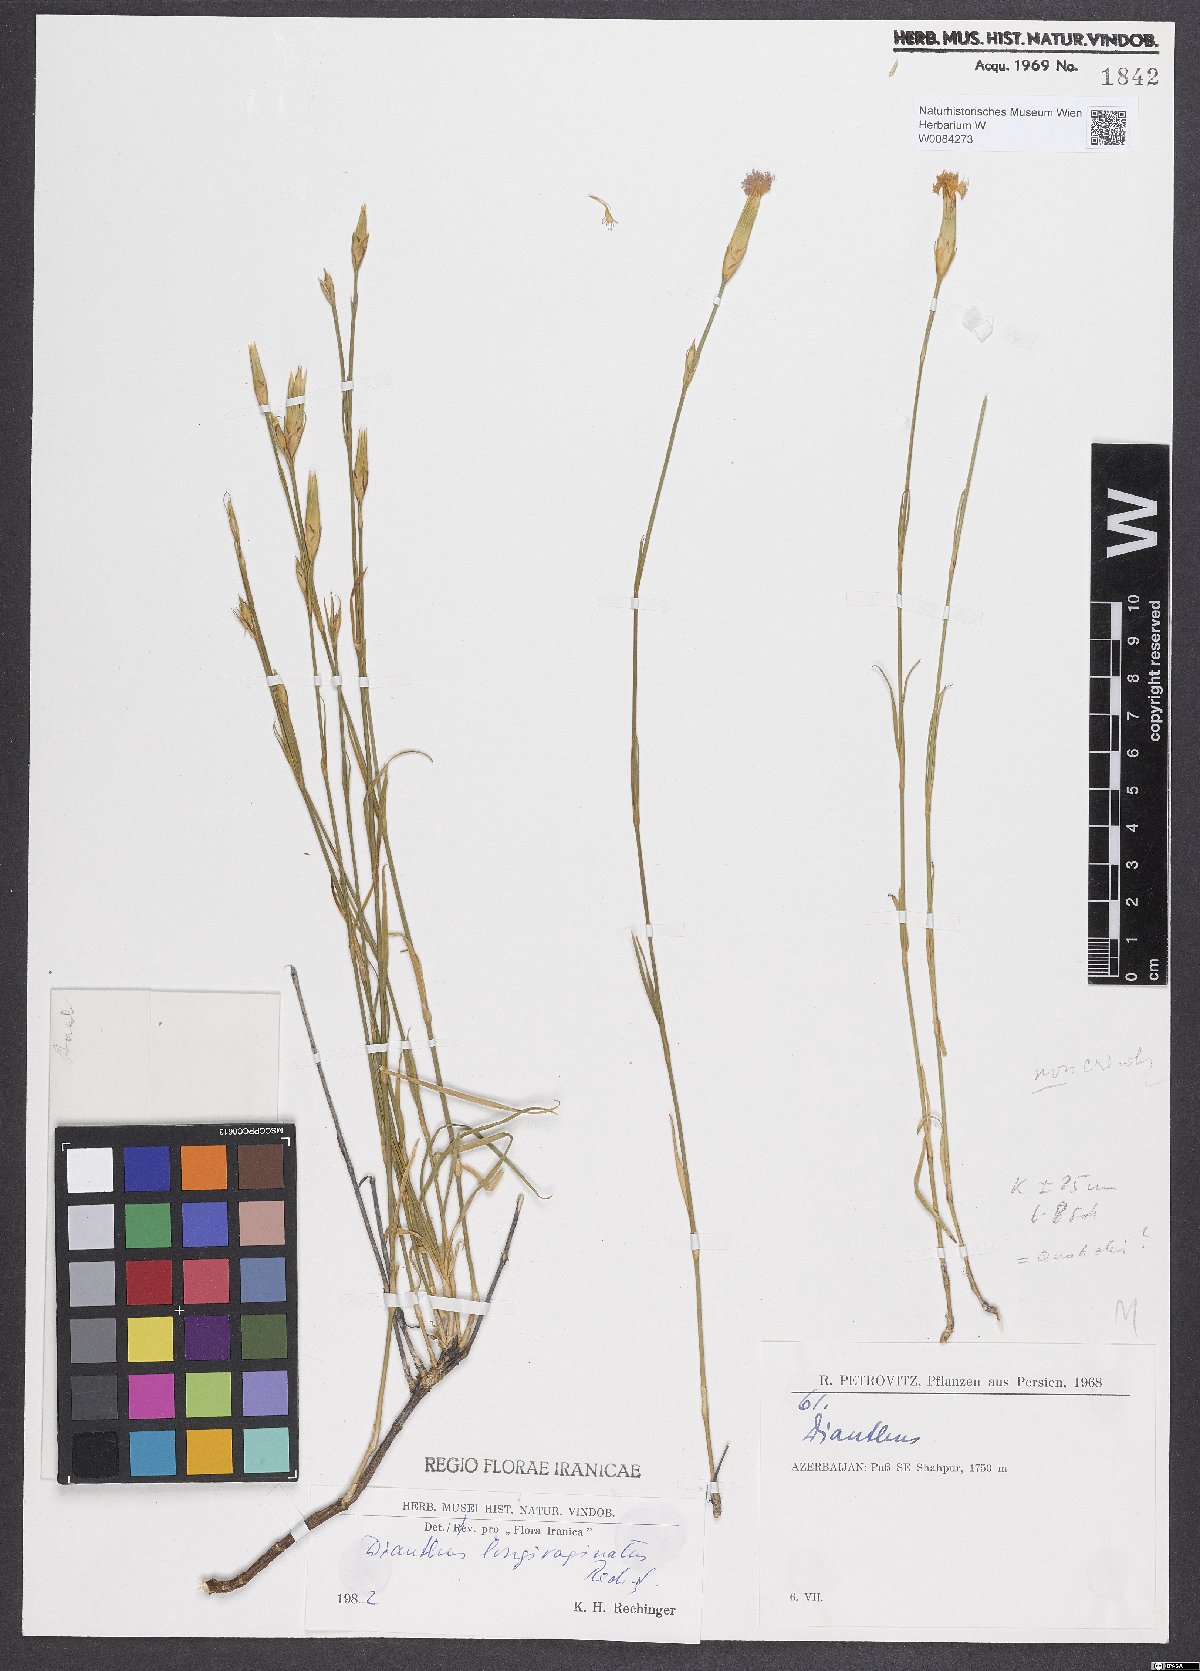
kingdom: Plantae
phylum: Tracheophyta
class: Magnoliopsida
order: Caryophyllales
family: Caryophyllaceae
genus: Dianthus
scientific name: Dianthus longivaginatus
